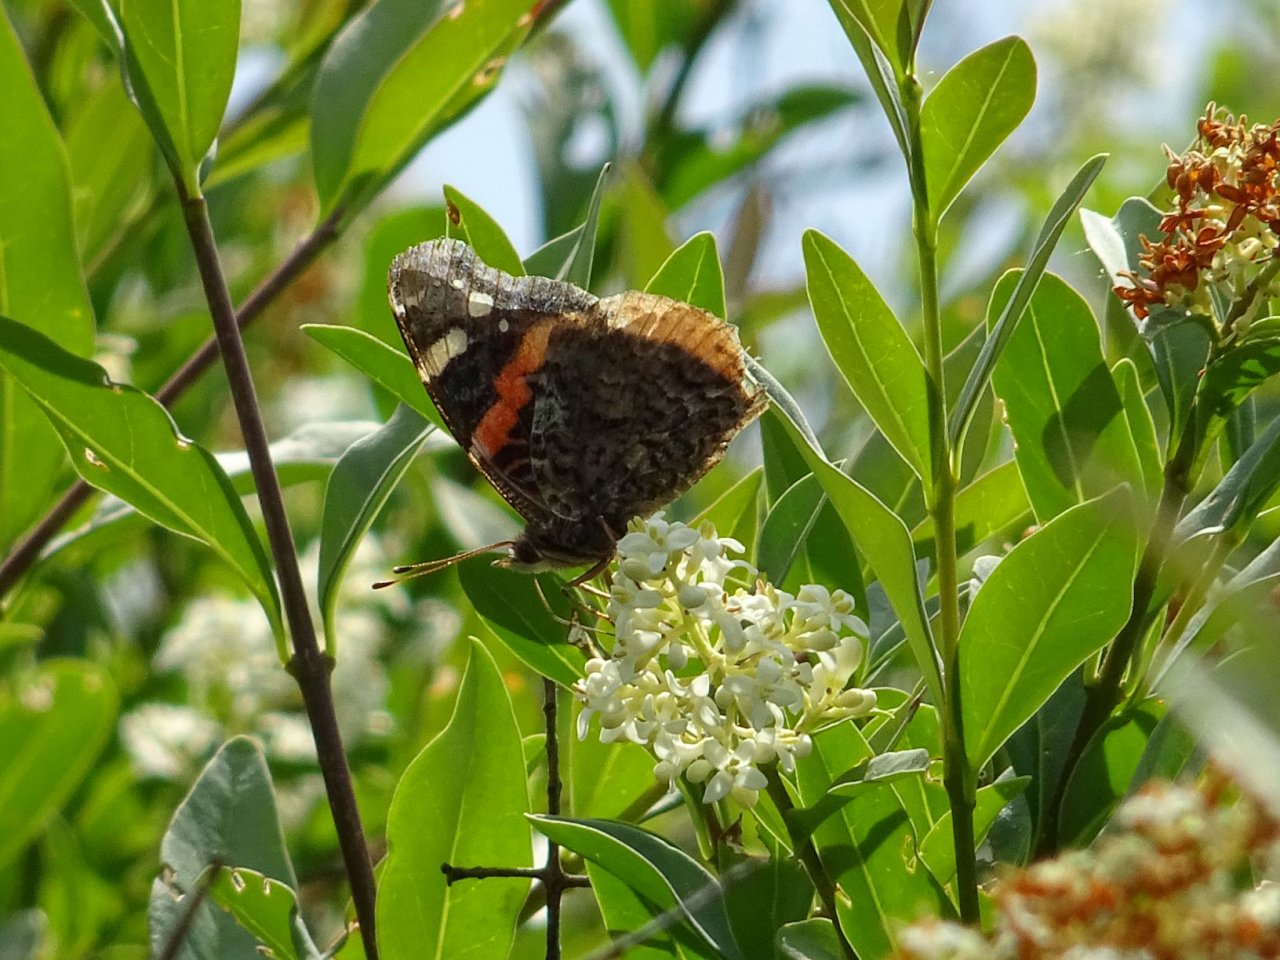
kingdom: Animalia
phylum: Arthropoda
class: Insecta
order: Lepidoptera
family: Nymphalidae
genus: Vanessa
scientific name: Vanessa atalanta
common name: Red Admiral
